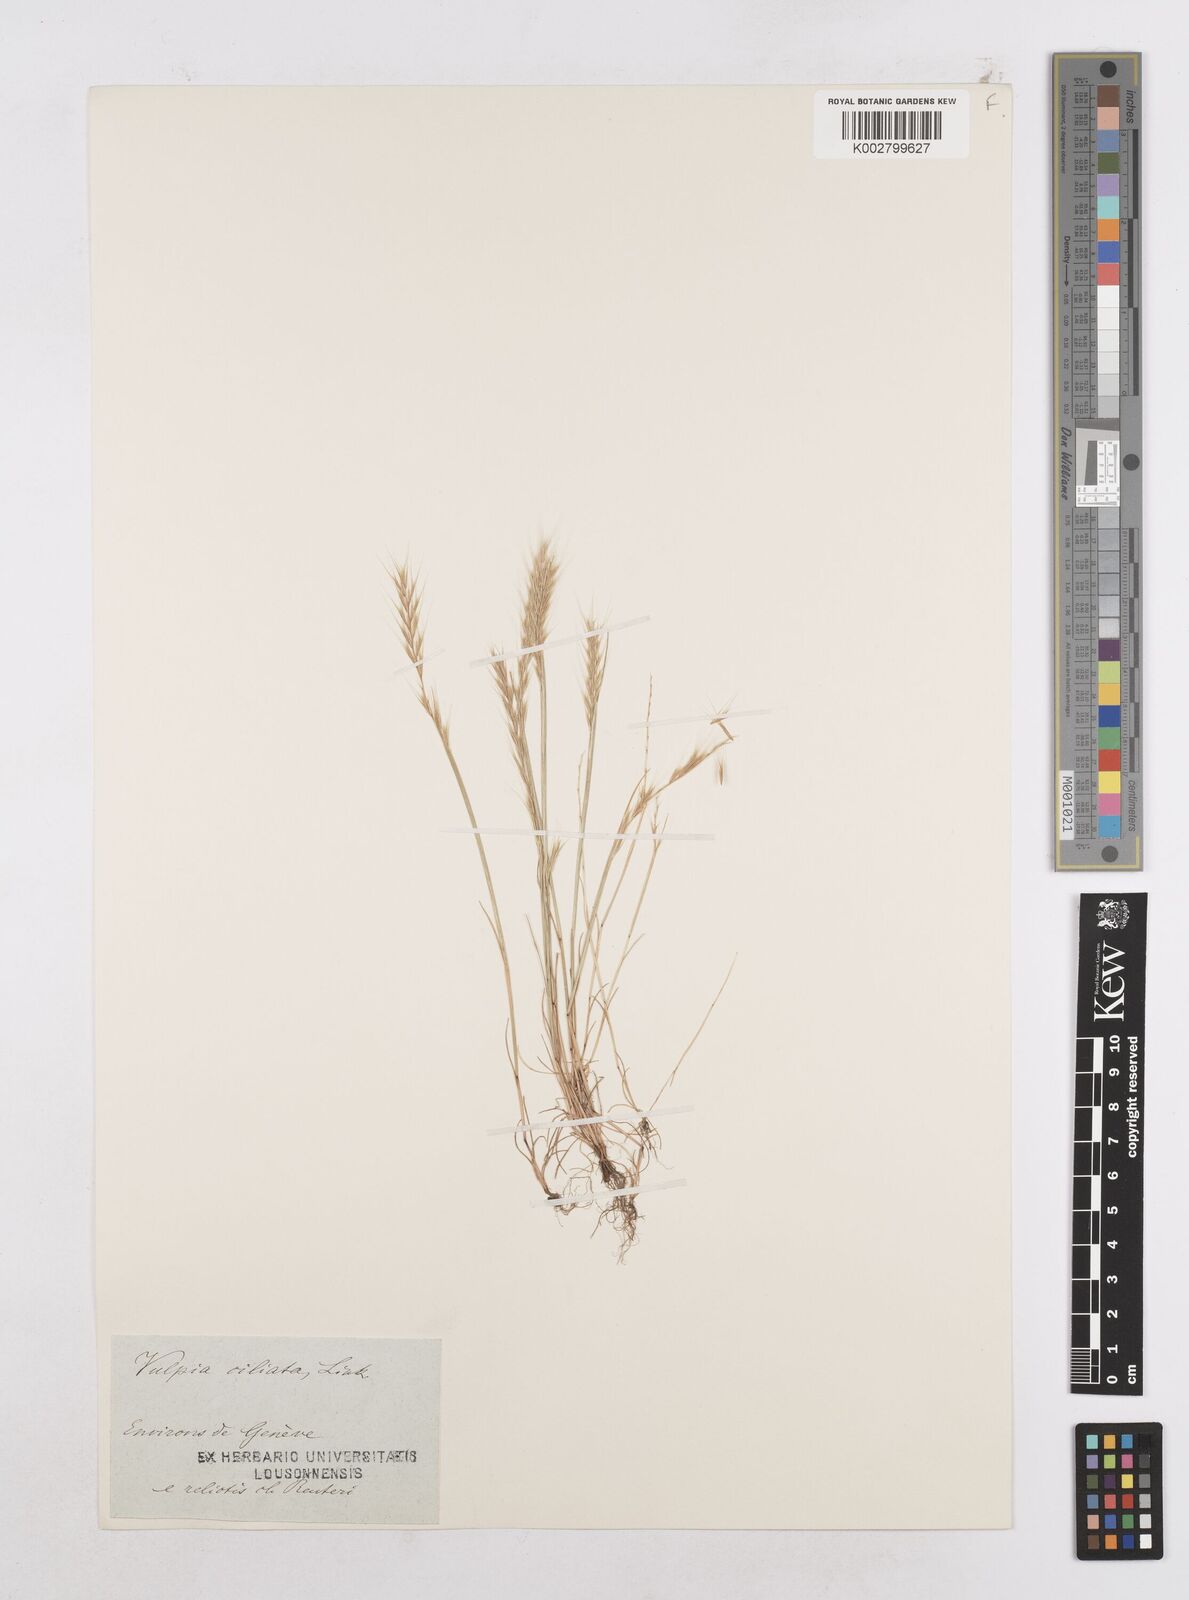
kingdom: Plantae
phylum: Tracheophyta
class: Liliopsida
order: Poales
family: Poaceae
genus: Festuca
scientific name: Festuca
